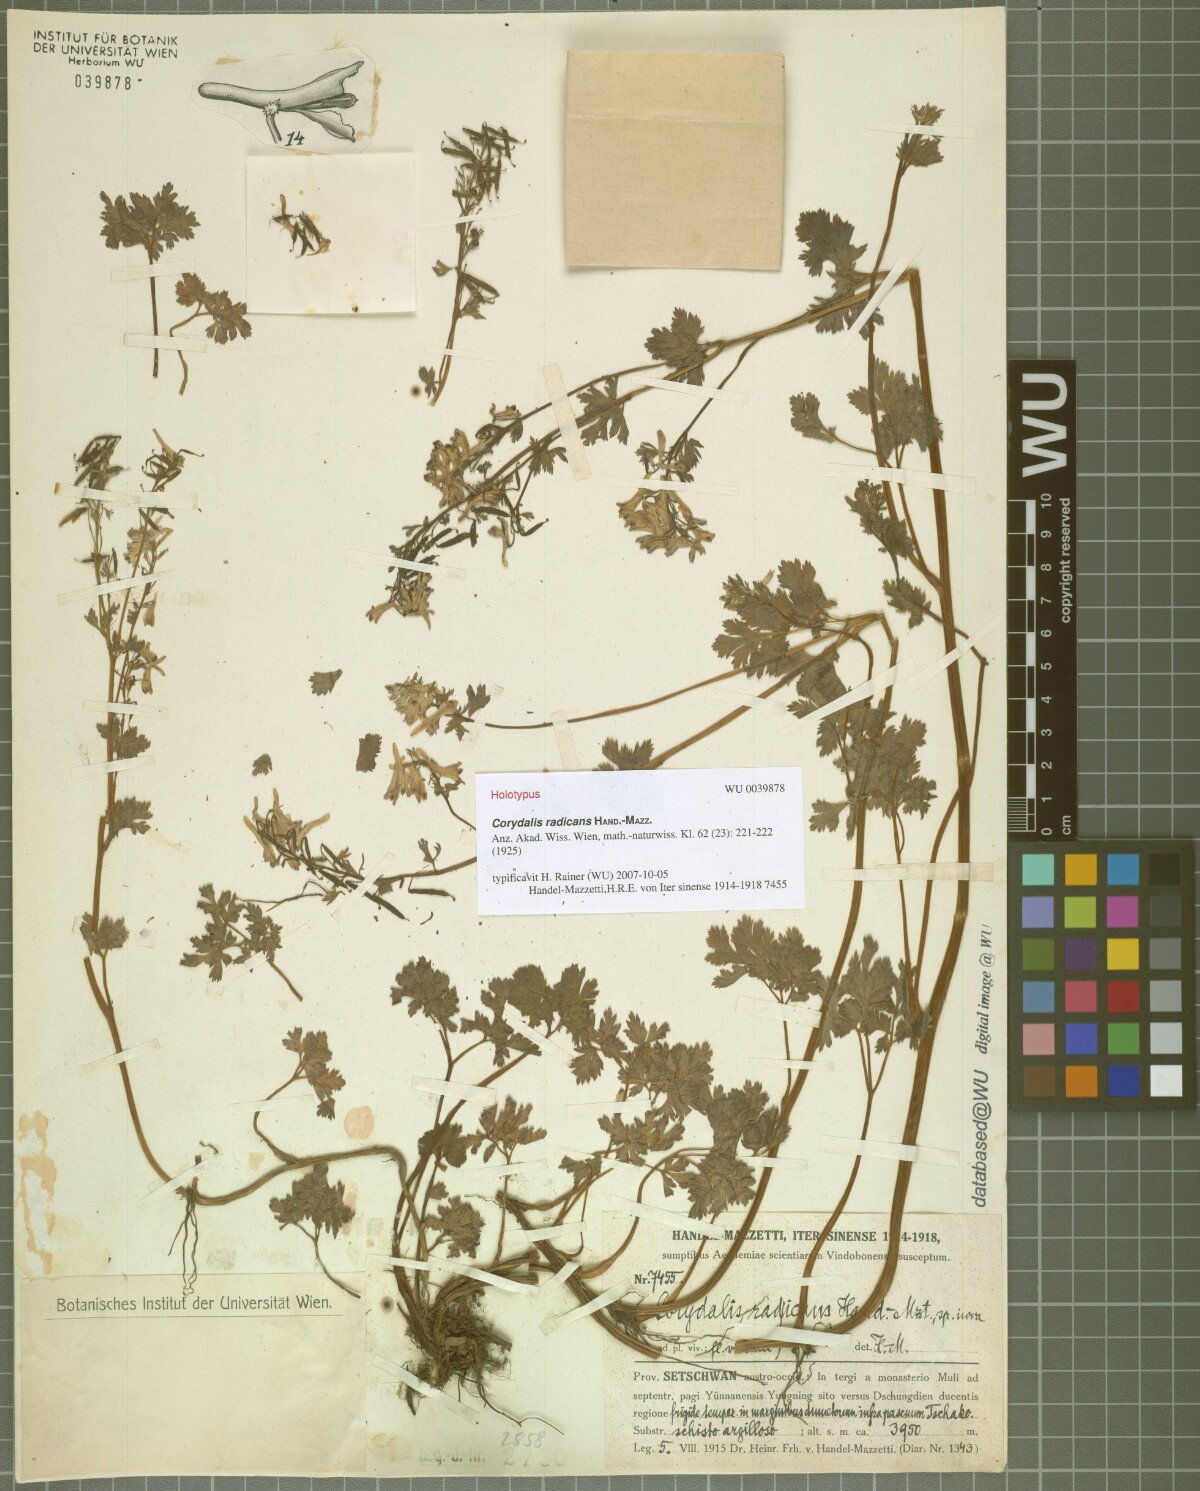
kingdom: Plantae
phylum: Tracheophyta
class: Magnoliopsida
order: Ranunculales
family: Papaveraceae
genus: Corydalis
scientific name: Corydalis radicans
